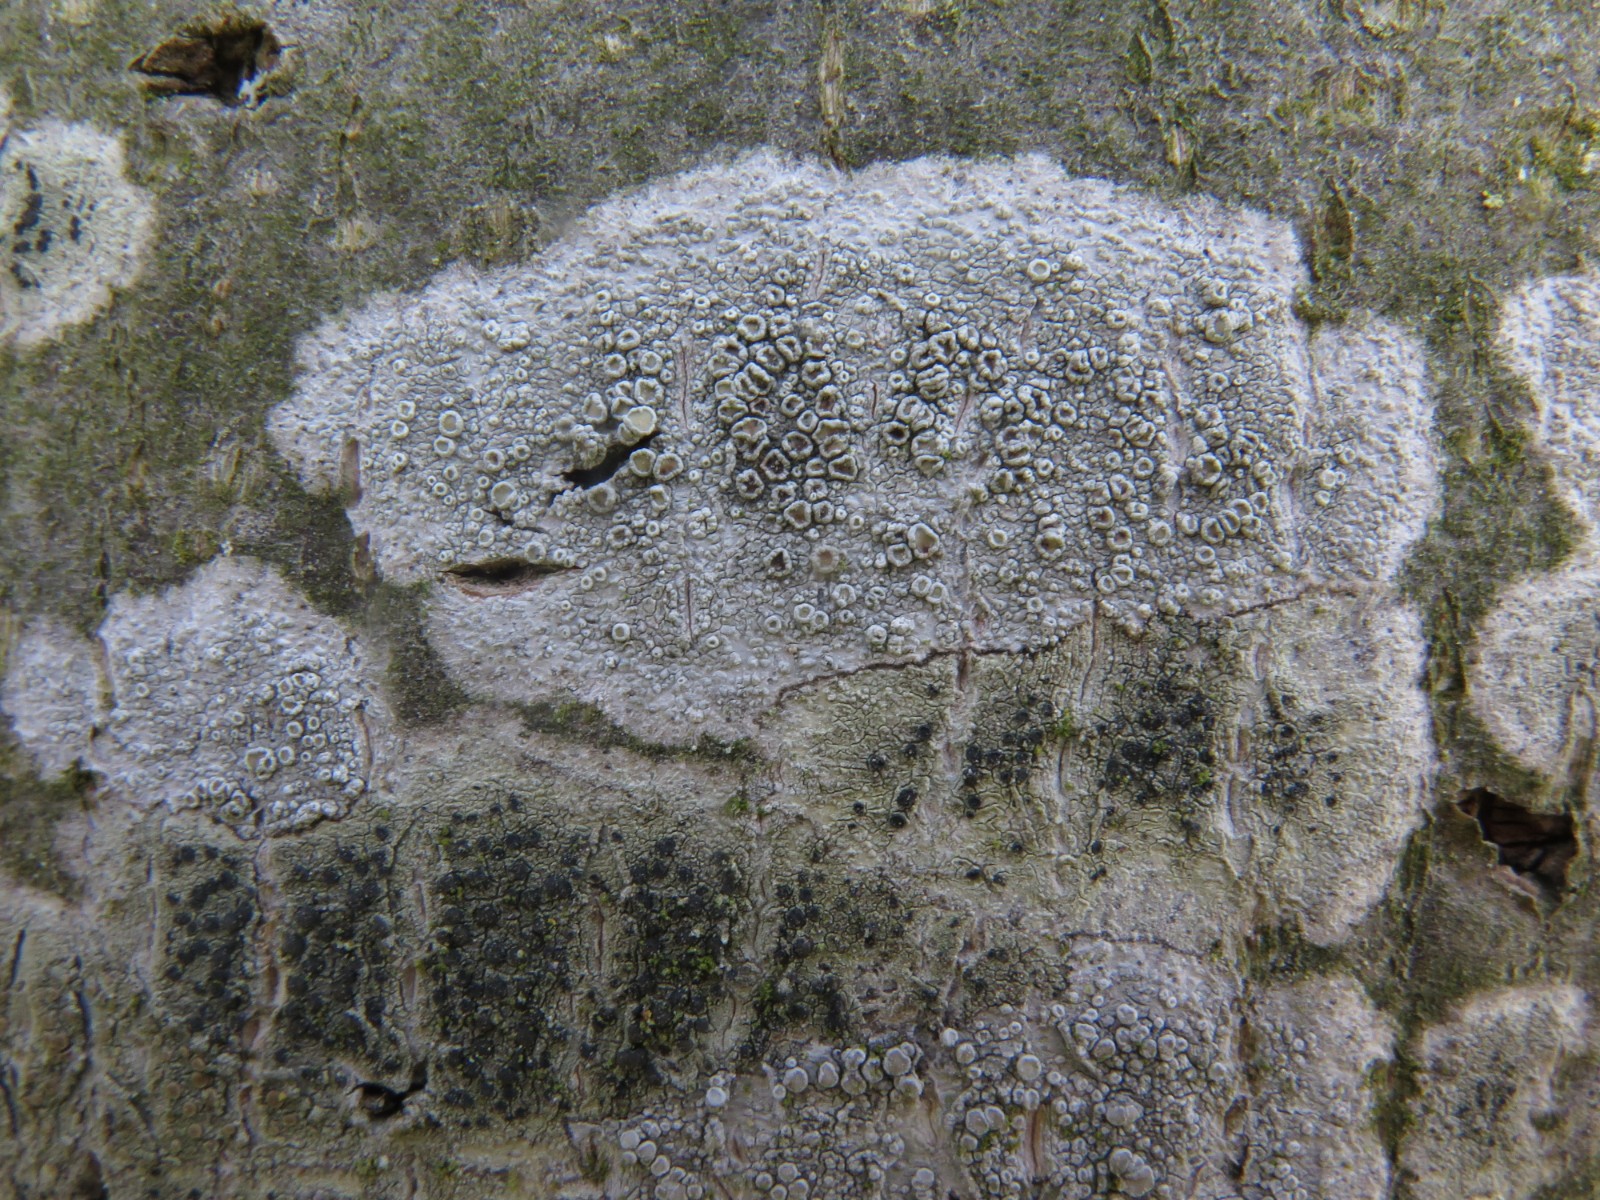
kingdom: Fungi
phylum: Ascomycota
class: Dothideomycetes
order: Pleosporales
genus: Vouauxiella
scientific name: Vouauxiella lichenicola
